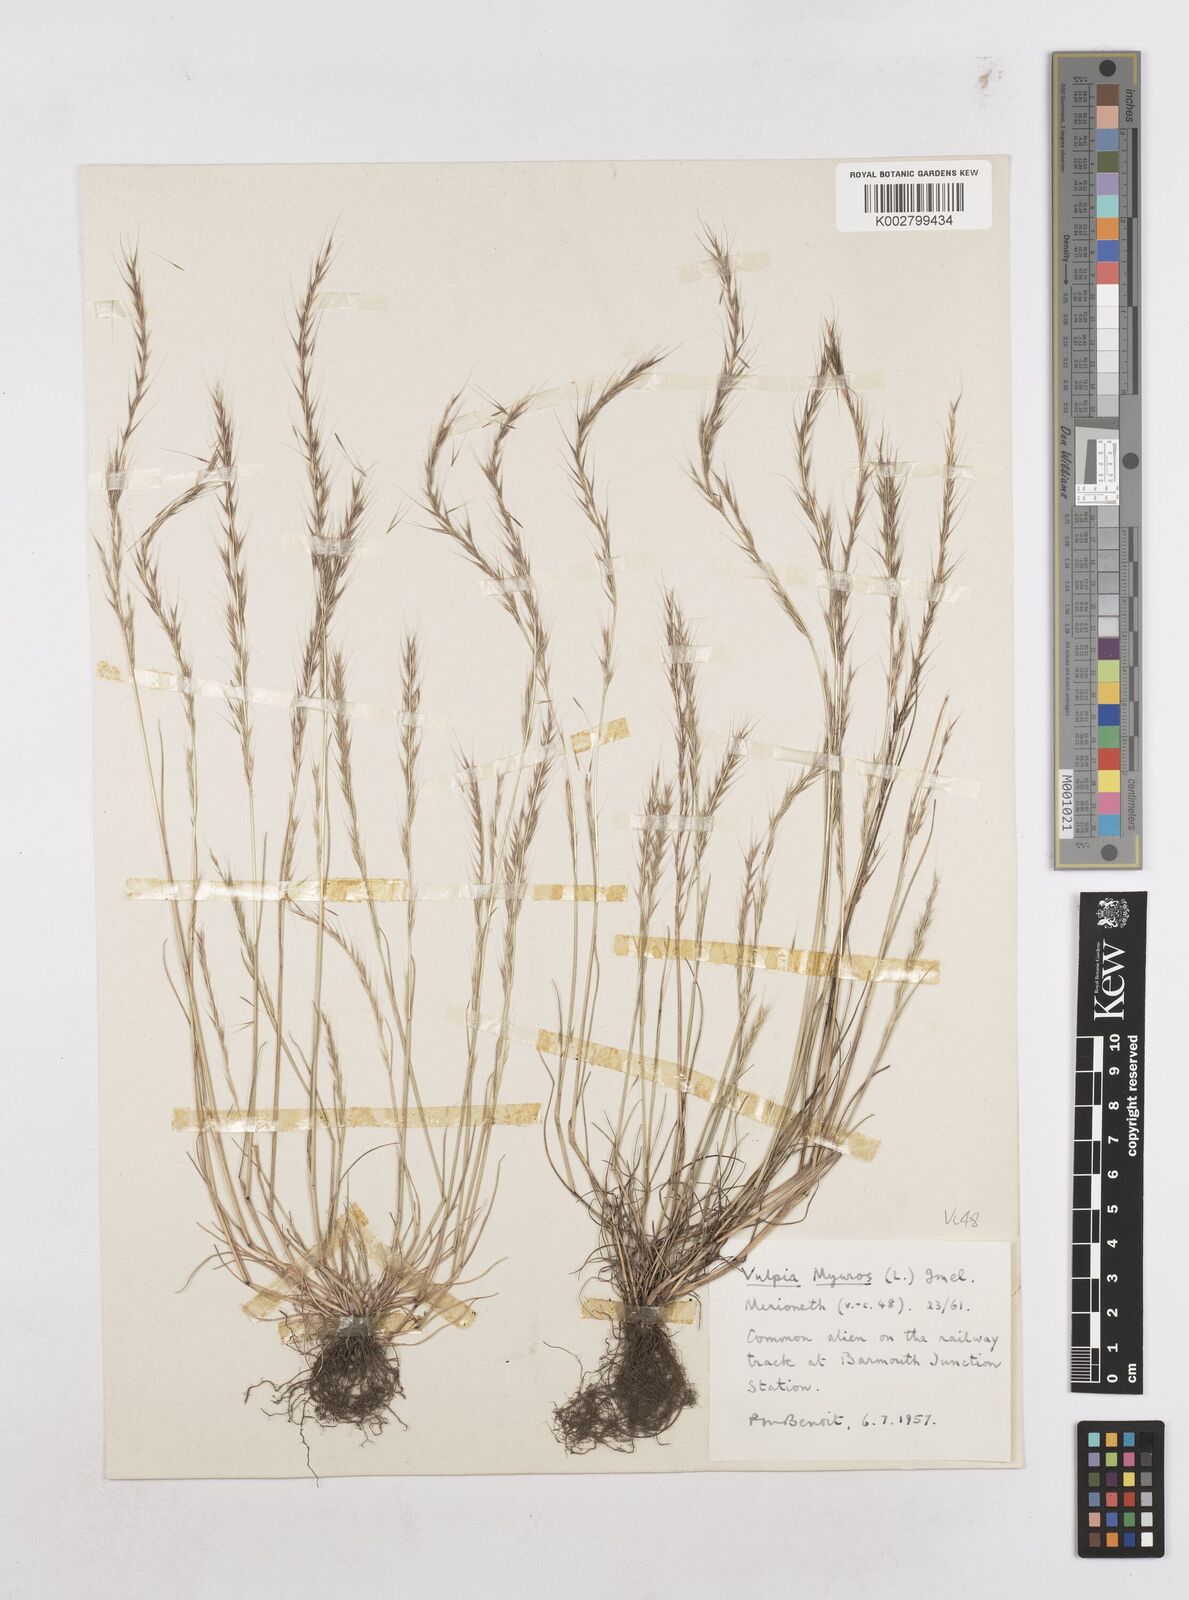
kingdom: Plantae
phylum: Tracheophyta
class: Liliopsida
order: Poales
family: Poaceae
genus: Festuca
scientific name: Festuca myuros
